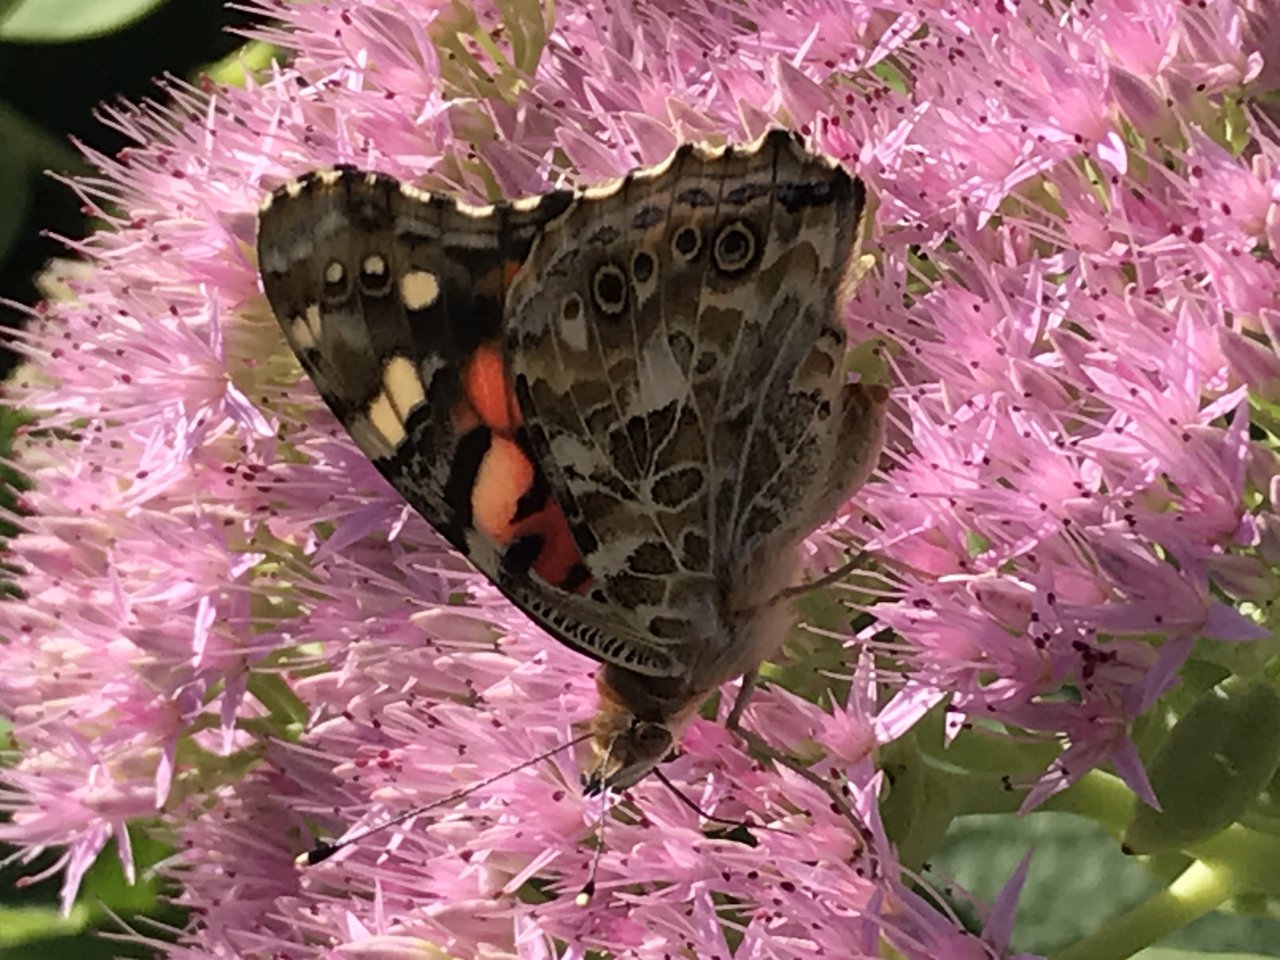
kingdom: Animalia
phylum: Arthropoda
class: Insecta
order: Lepidoptera
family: Nymphalidae
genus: Vanessa
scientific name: Vanessa cardui
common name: Painted Lady
